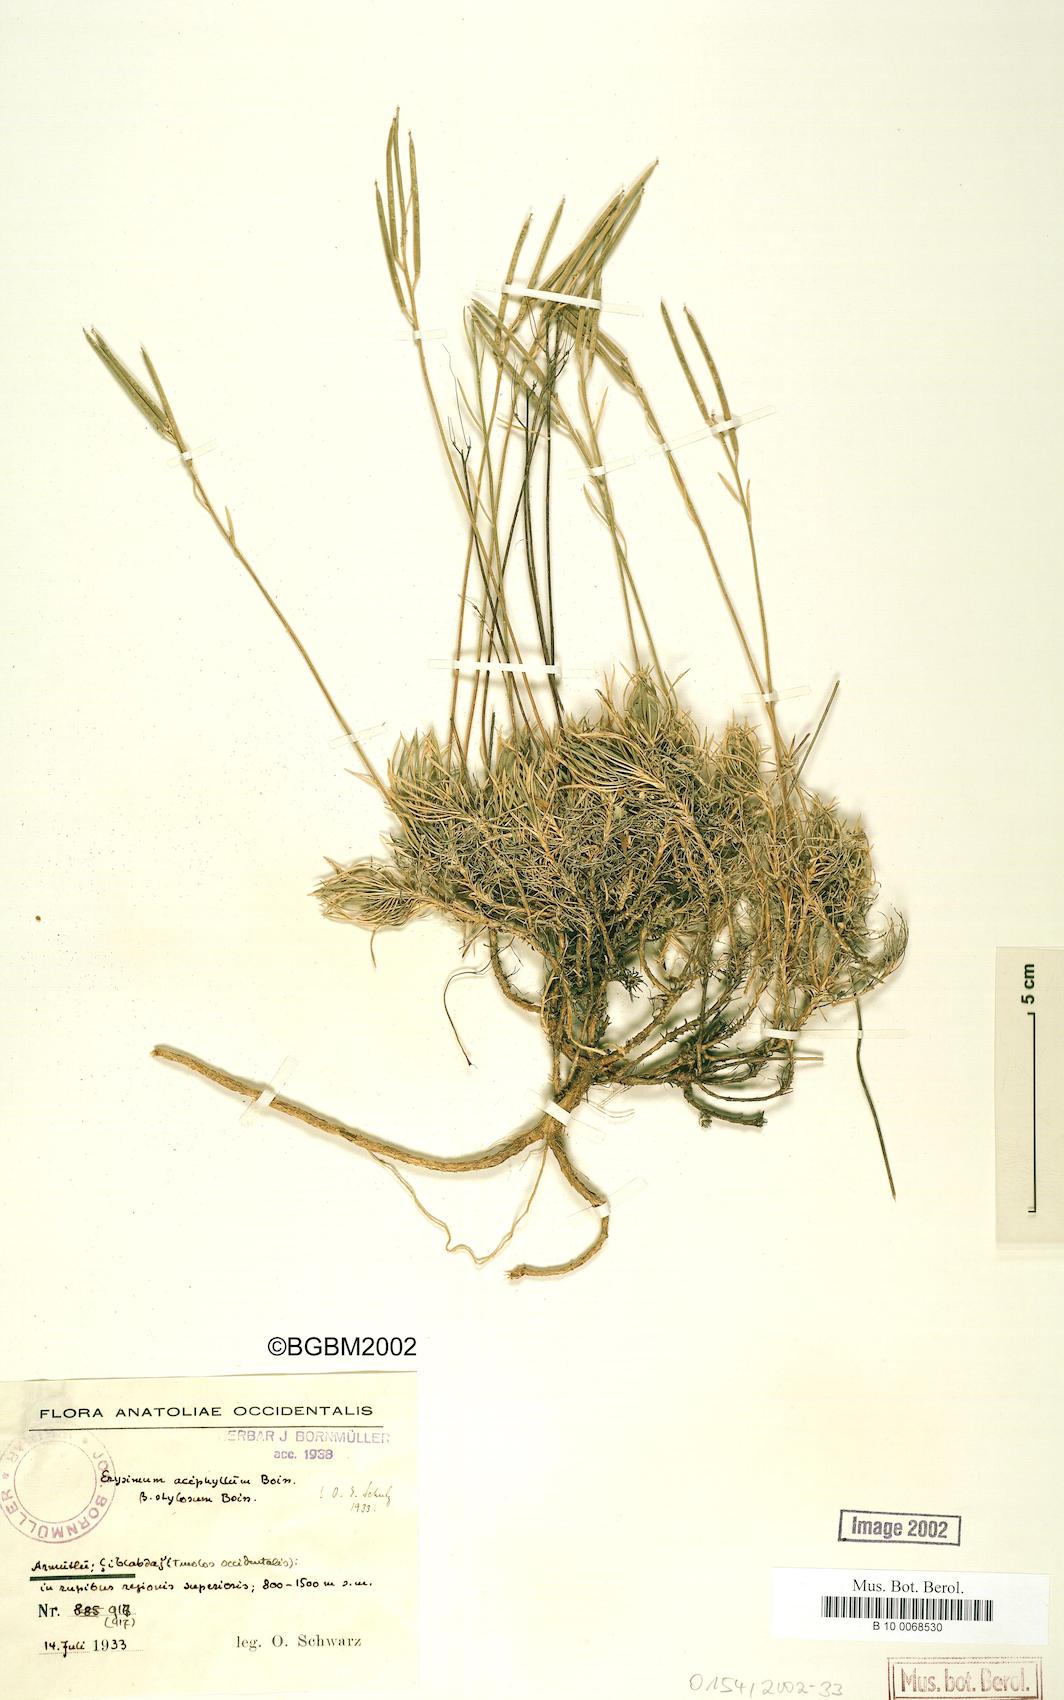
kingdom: Plantae
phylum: Tracheophyta
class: Magnoliopsida
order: Brassicales
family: Brassicaceae
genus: Erysimum
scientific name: Erysimum leptocarpum
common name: Thin-fruited tracle mustard
